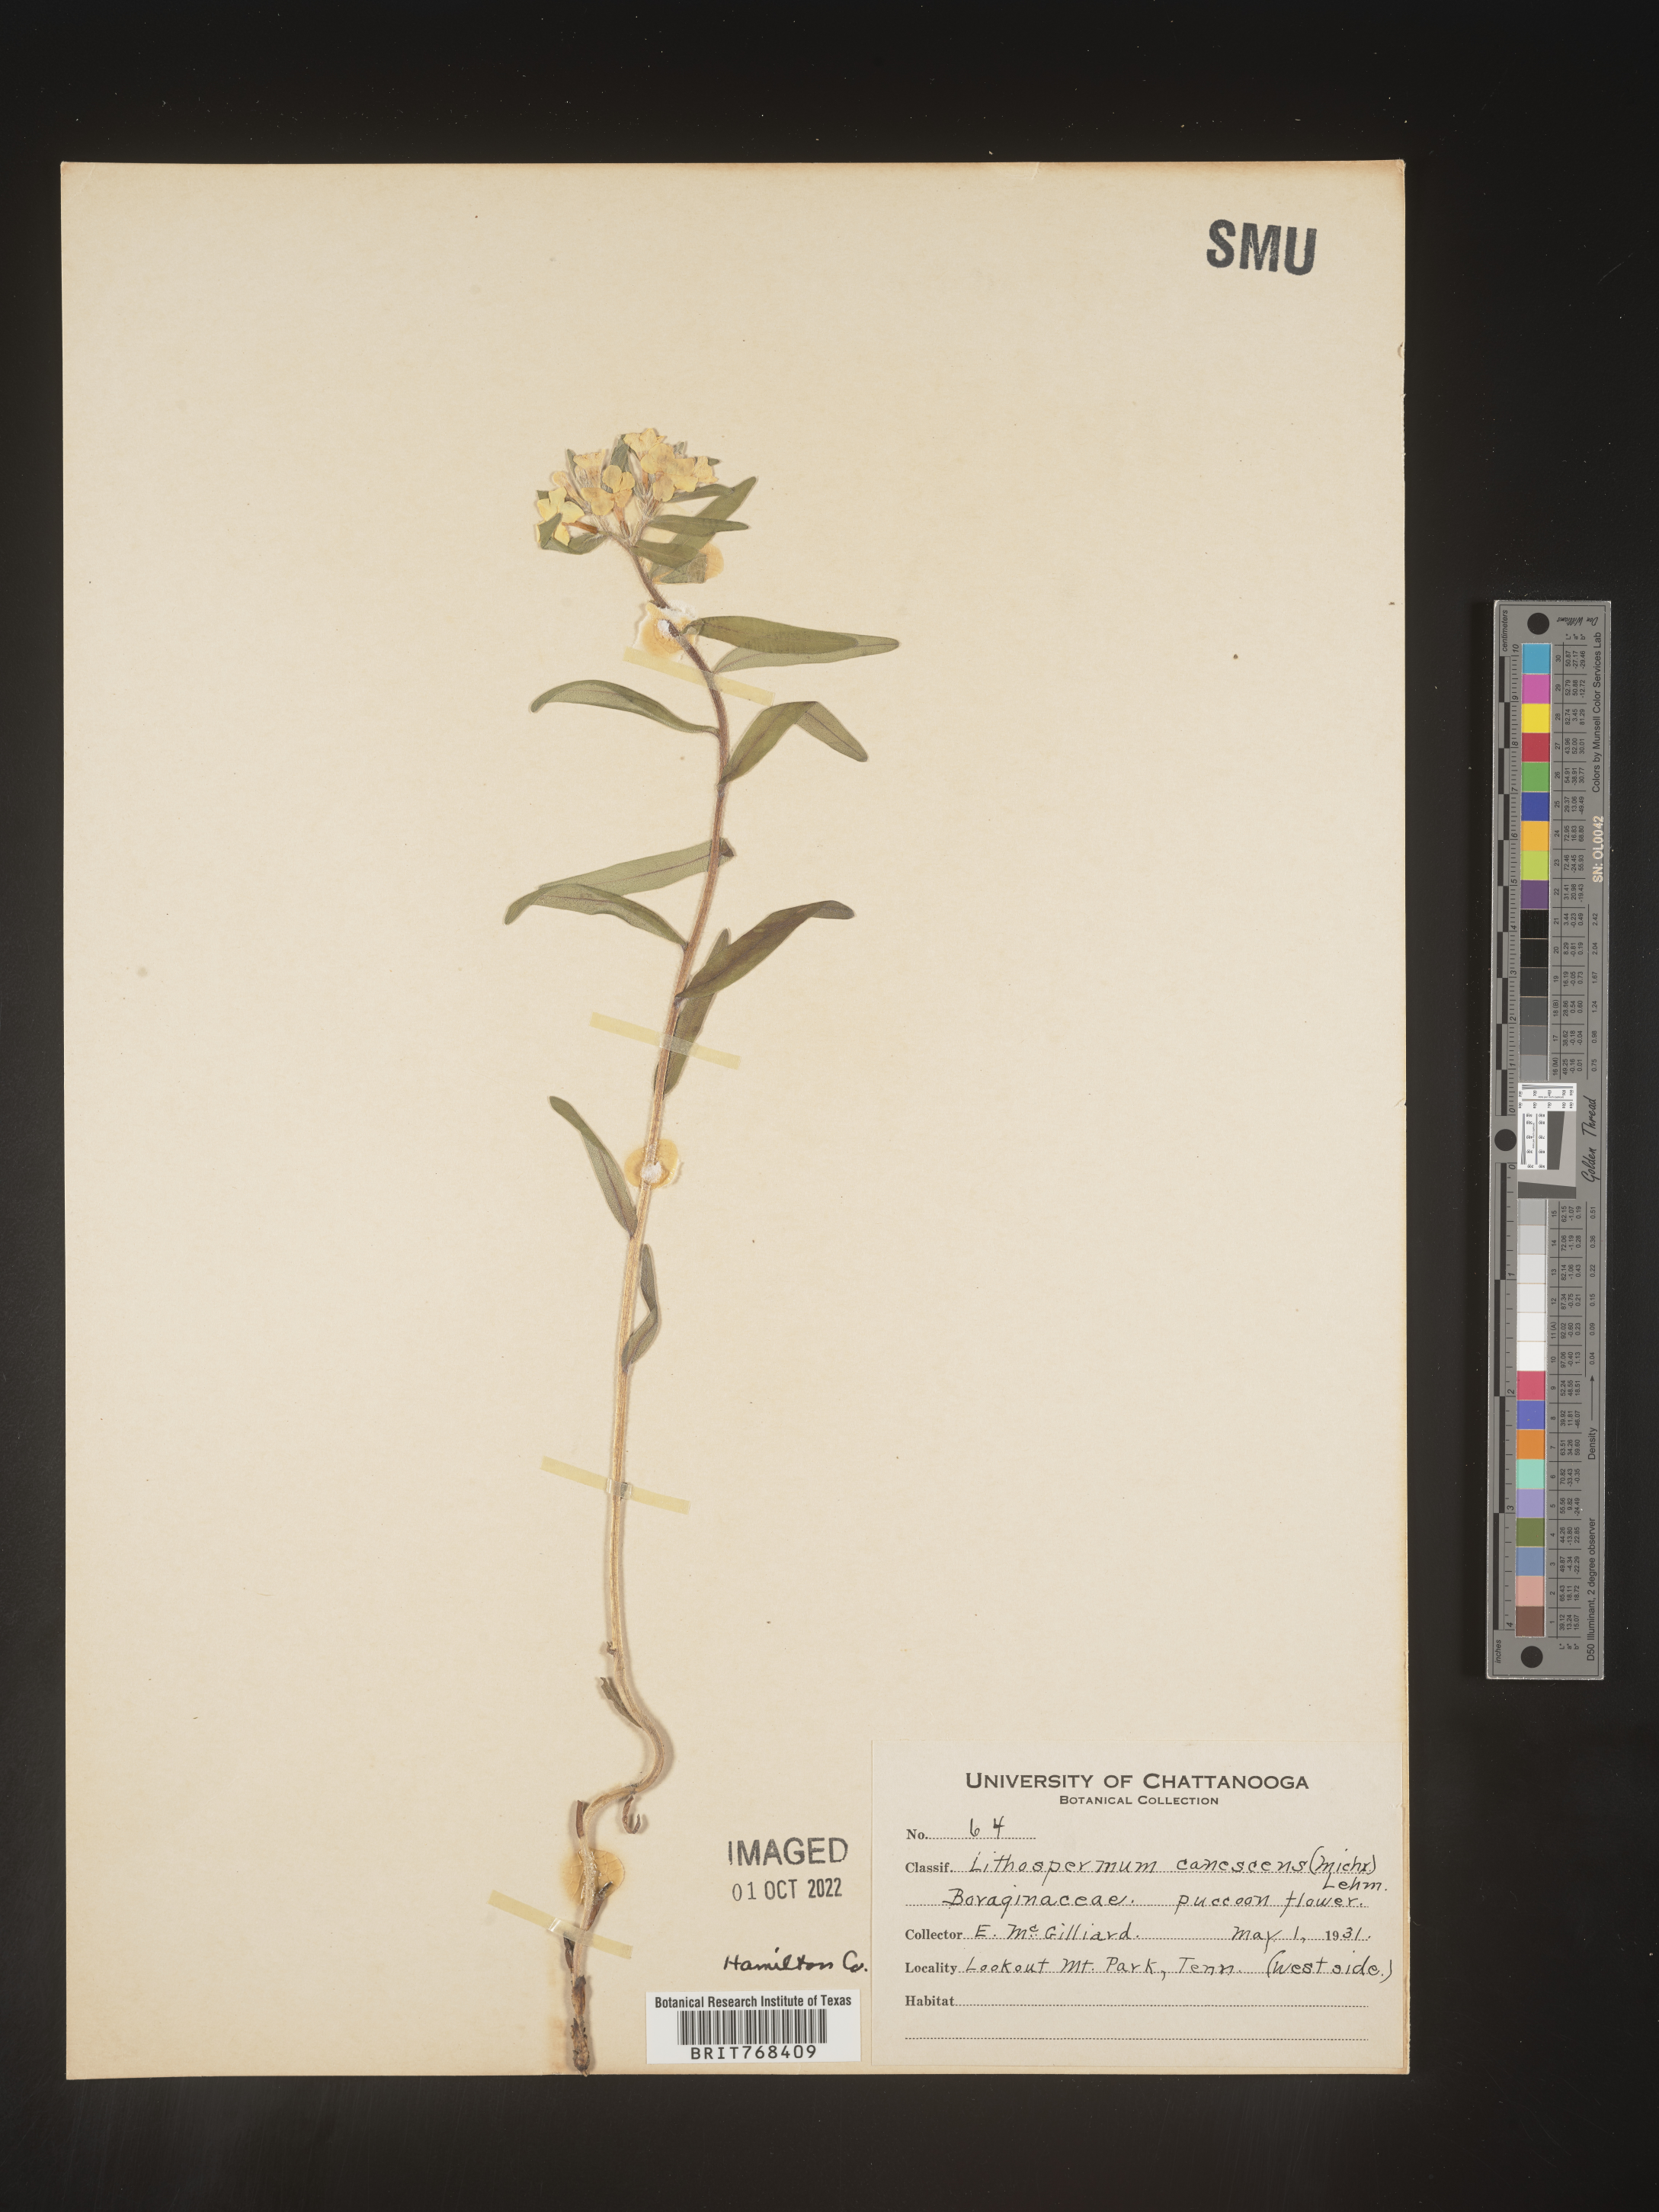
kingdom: Plantae
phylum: Tracheophyta
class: Magnoliopsida
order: Boraginales
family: Boraginaceae
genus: Lithospermum
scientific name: Lithospermum canescens
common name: Hoary puccoon
